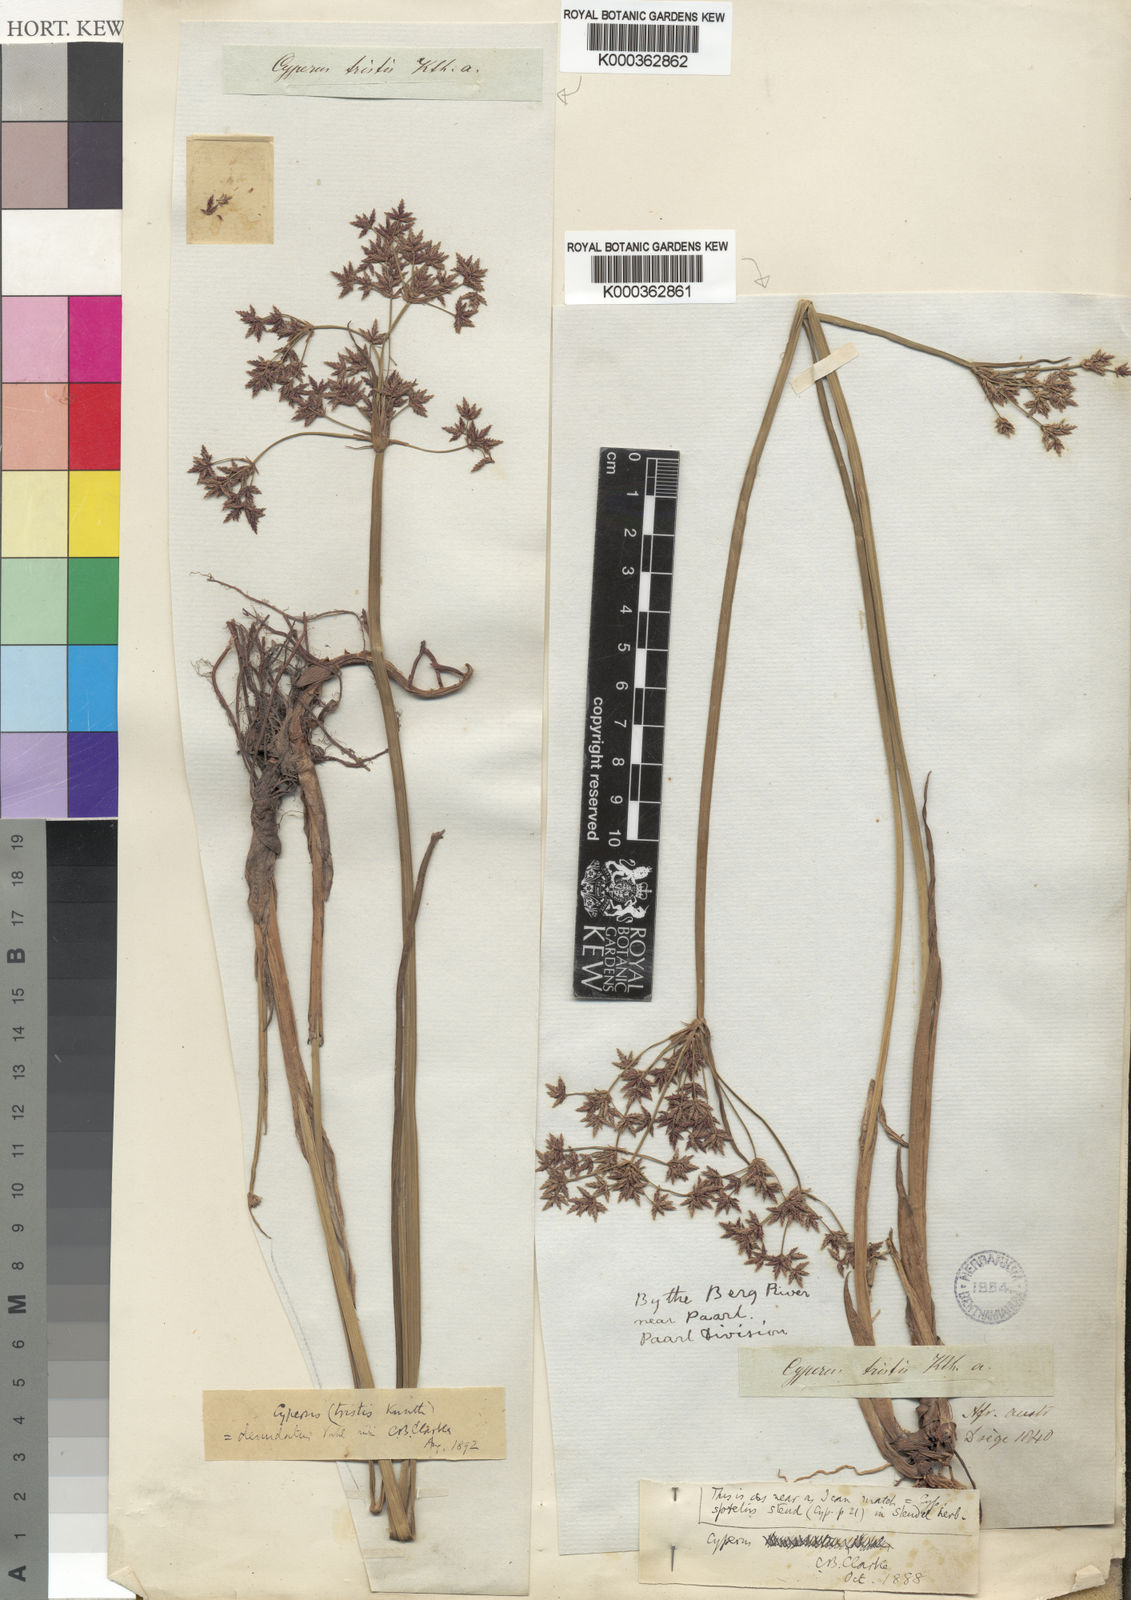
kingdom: Plantae
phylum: Tracheophyta
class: Liliopsida
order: Poales
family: Cyperaceae
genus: Cyperus
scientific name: Cyperus denudatus
